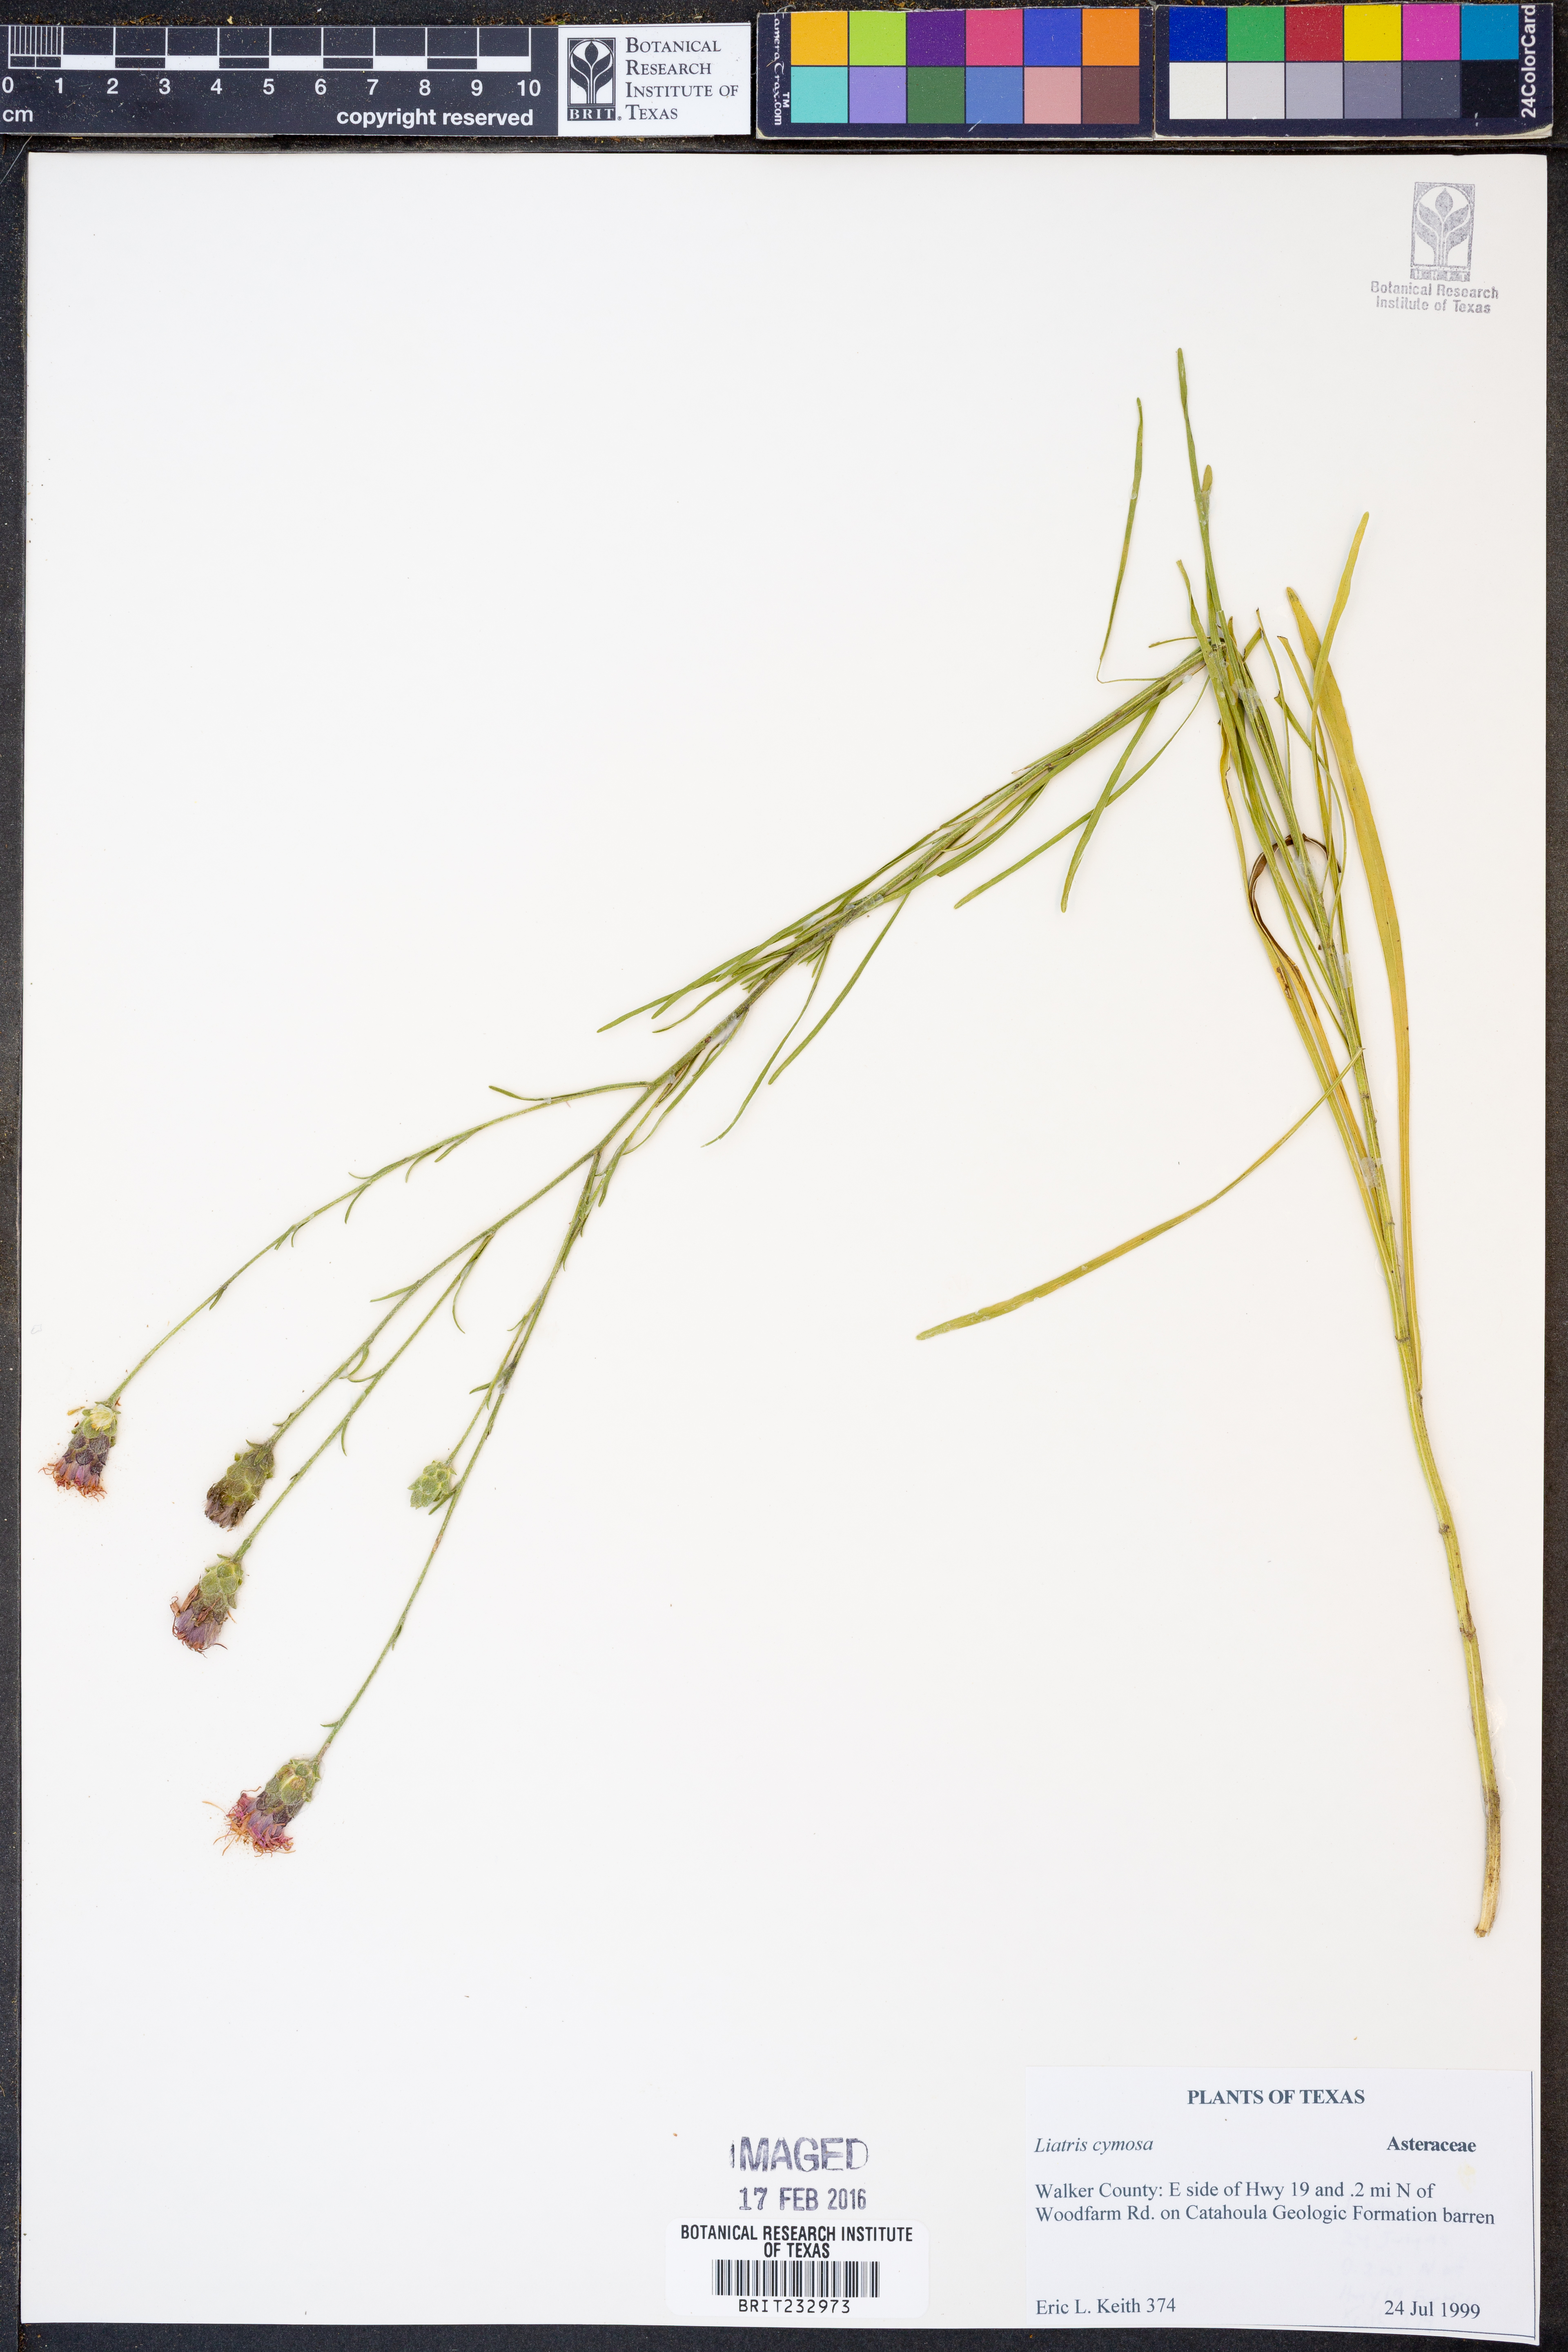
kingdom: Plantae
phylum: Tracheophyta
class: Magnoliopsida
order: Asterales
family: Asteraceae
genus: Liatris
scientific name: Liatris cymosa
